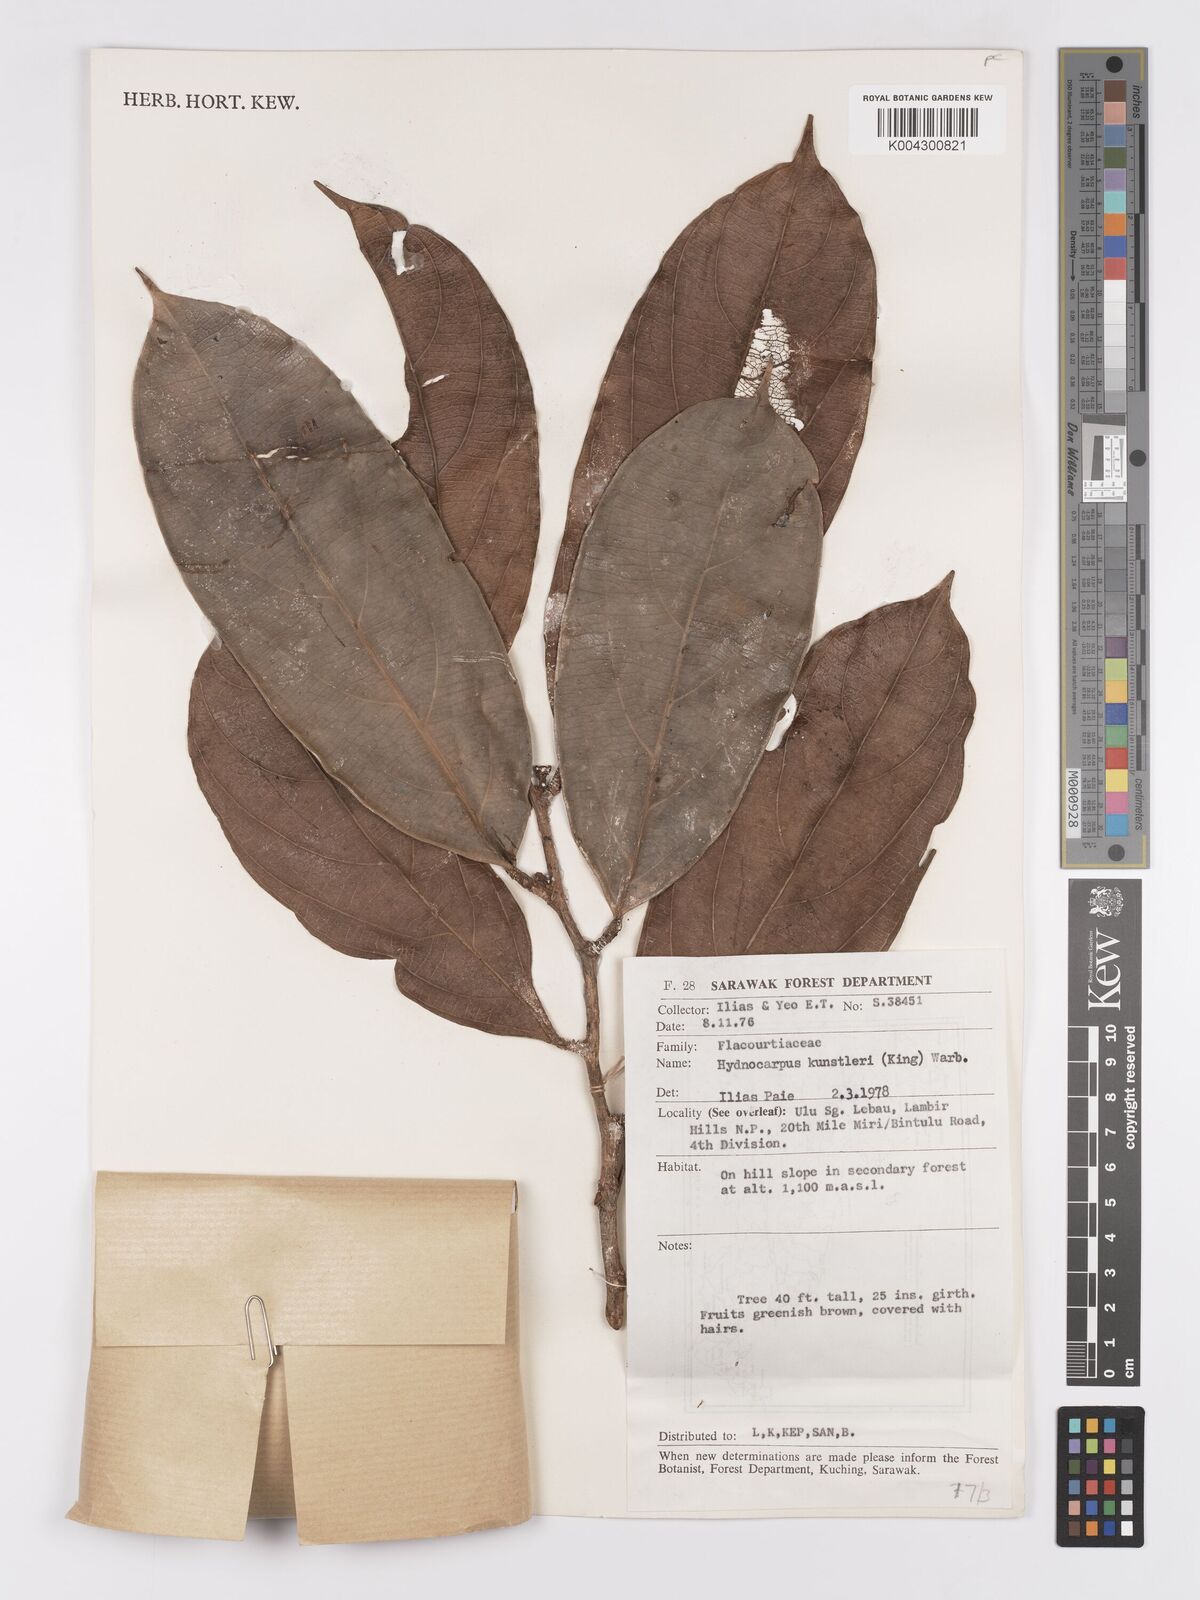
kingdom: Plantae
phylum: Tracheophyta
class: Magnoliopsida
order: Malpighiales
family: Achariaceae
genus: Hydnocarpus
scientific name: Hydnocarpus kunstleri
